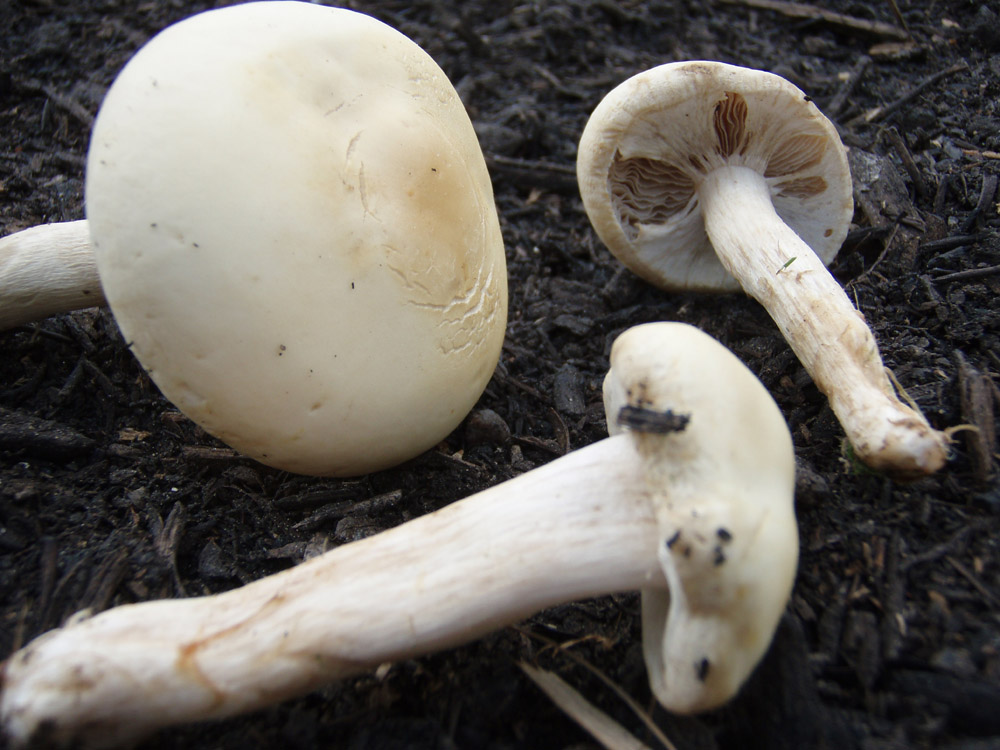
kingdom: Fungi
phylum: Basidiomycota
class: Agaricomycetes
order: Agaricales
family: Strophariaceae
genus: Agrocybe
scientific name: Agrocybe praecox
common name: tidlig agerhat
